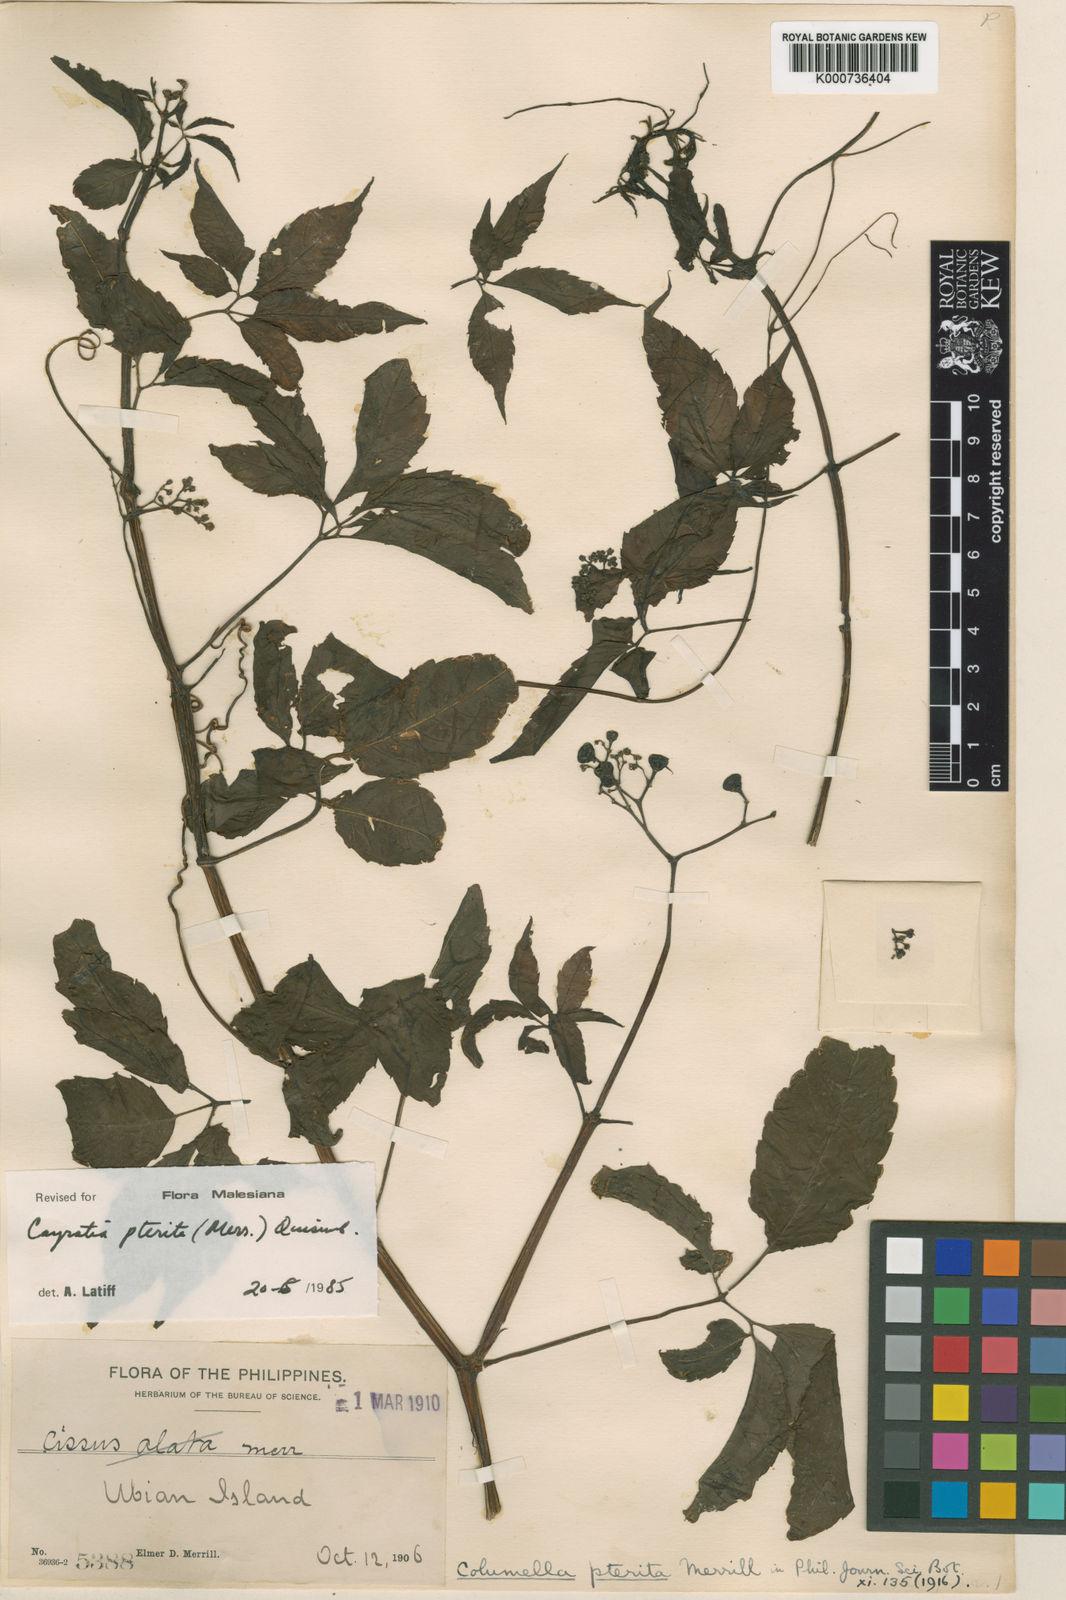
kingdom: Plantae
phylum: Tracheophyta
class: Magnoliopsida
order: Vitales
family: Vitaceae
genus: Causonis
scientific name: Causonis pterita
